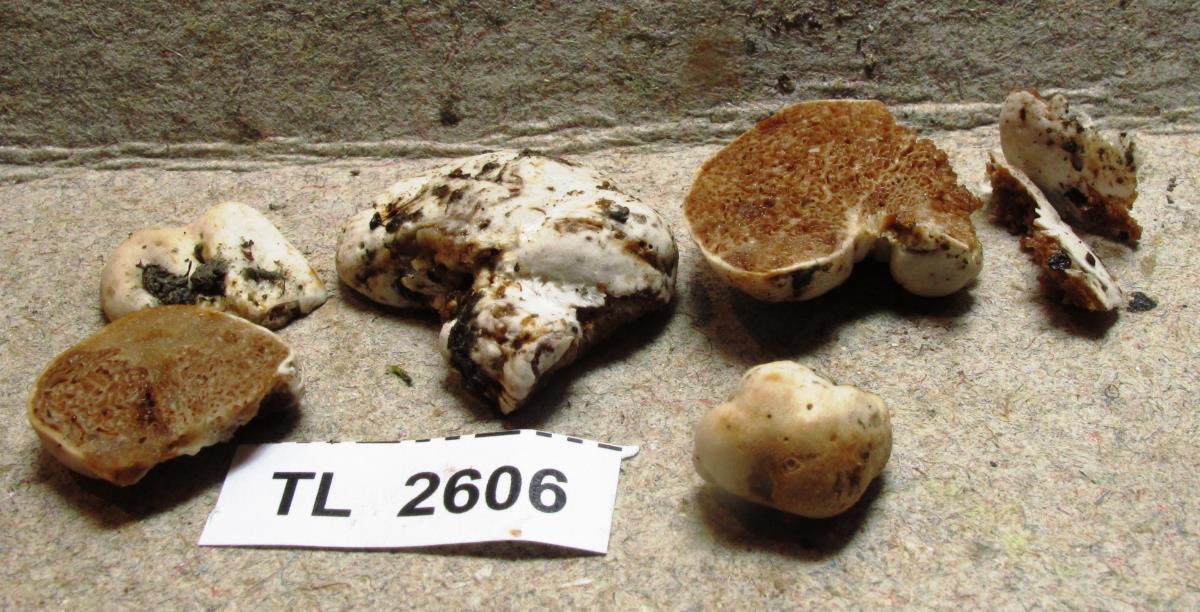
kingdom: Fungi
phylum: Basidiomycota
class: Agaricomycetes
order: Agaricales
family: Bolbitiaceae
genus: Descomyces
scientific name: Descomyces
